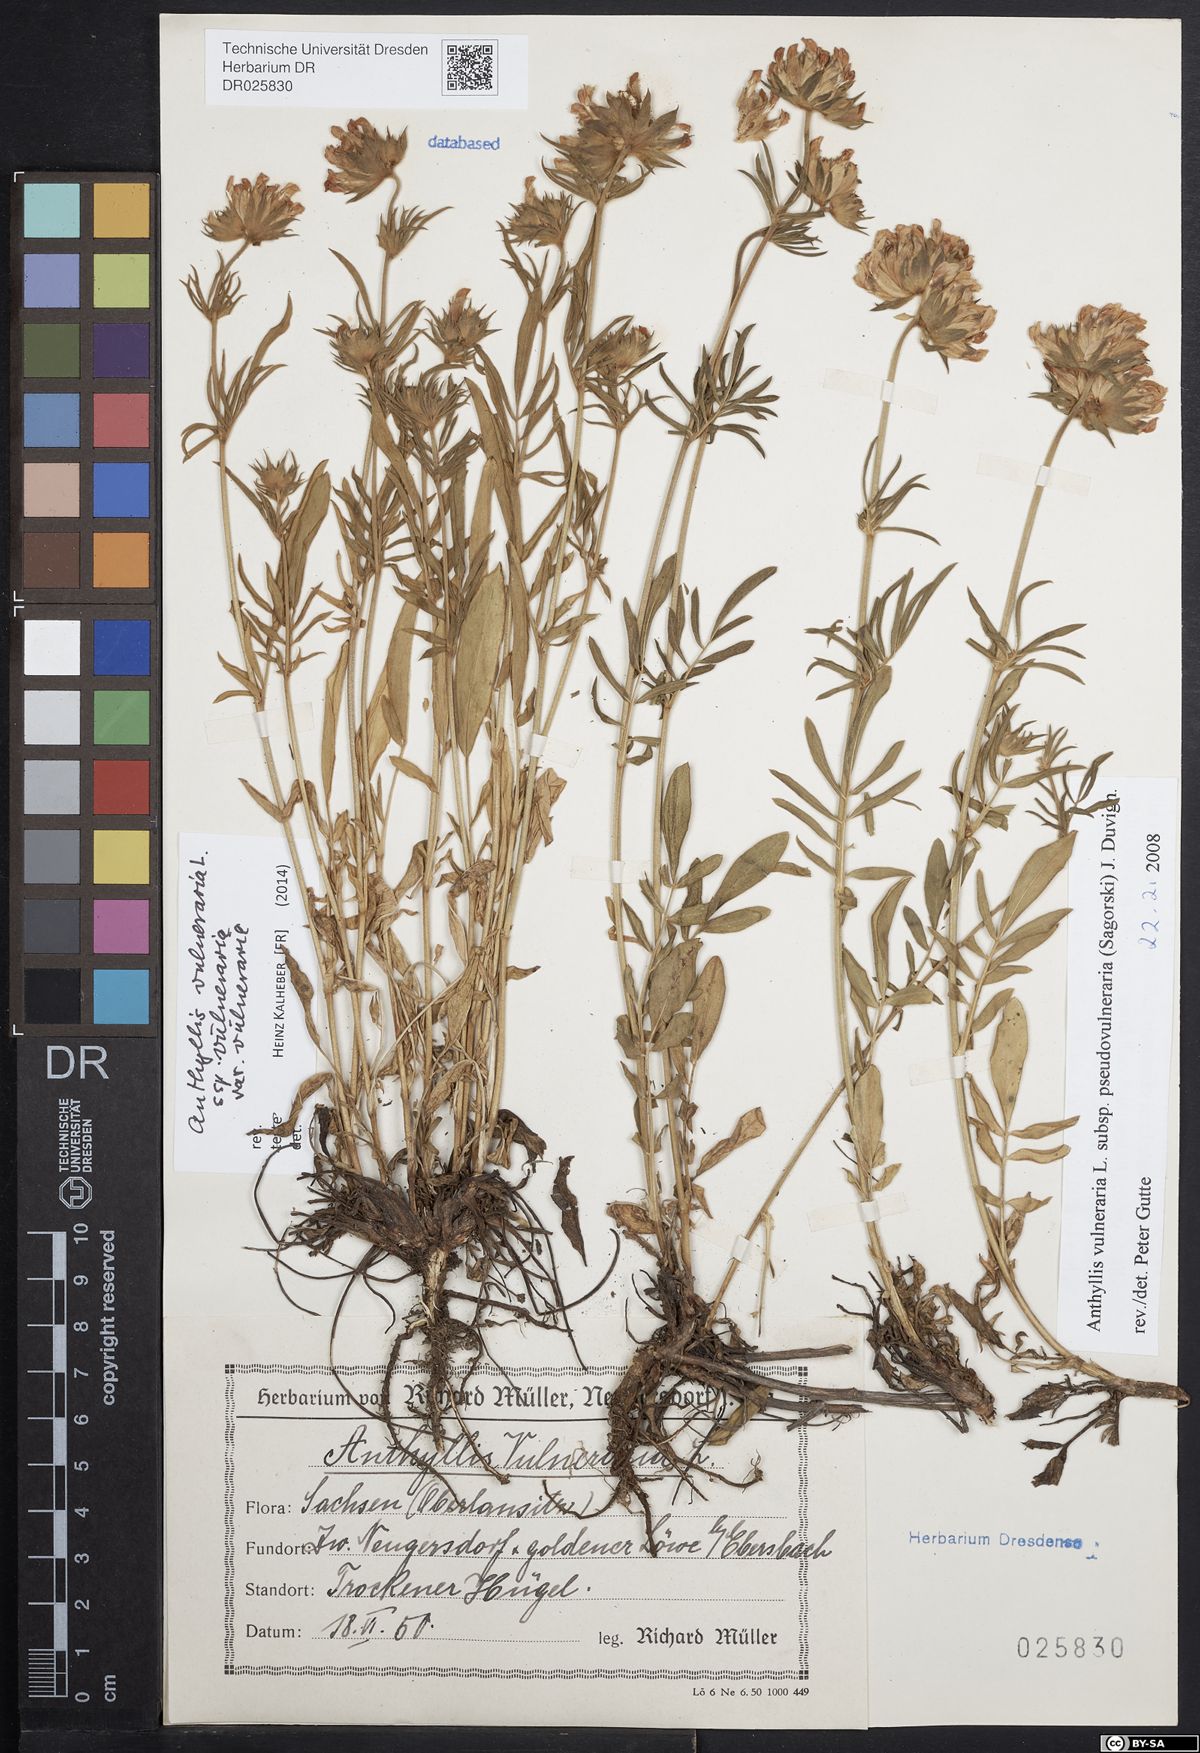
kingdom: Plantae
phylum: Tracheophyta
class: Magnoliopsida
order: Fabales
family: Fabaceae
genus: Anthyllis
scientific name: Anthyllis vulneraria
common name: Kidney vetch
